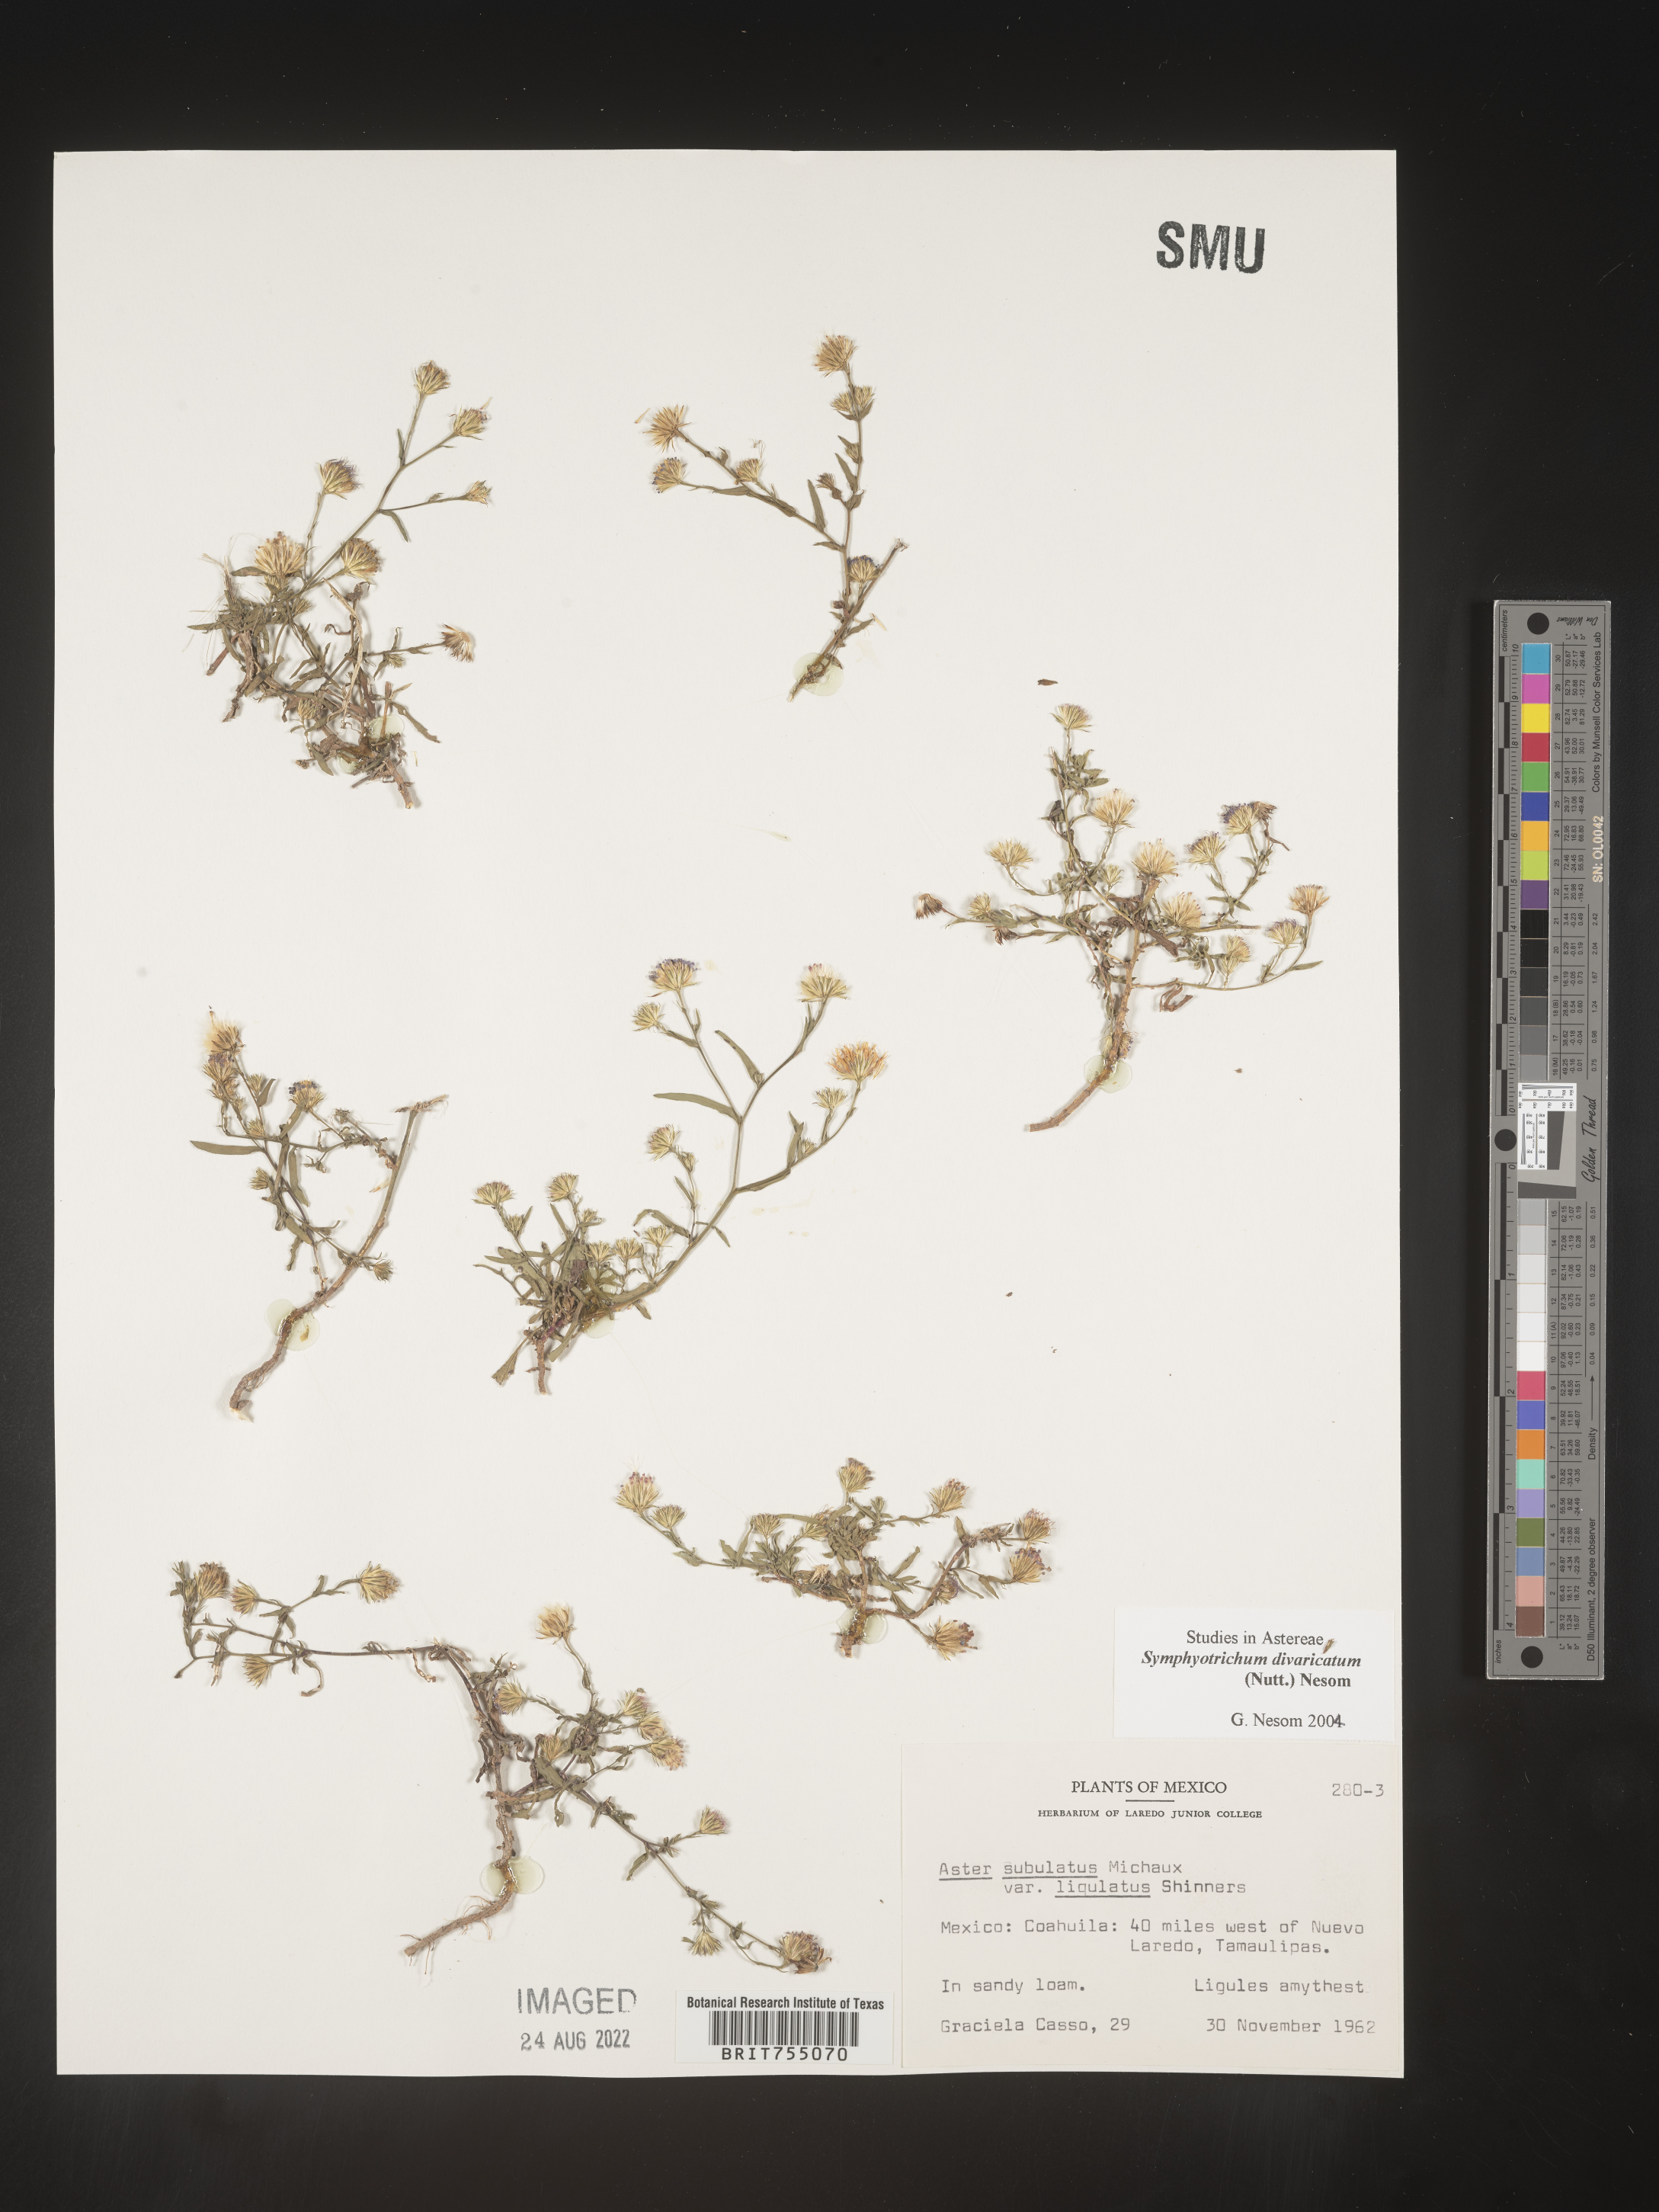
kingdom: Plantae
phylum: Tracheophyta
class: Magnoliopsida
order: Asterales
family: Asteraceae
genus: Symphyotrichum
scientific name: Symphyotrichum divaricatum
